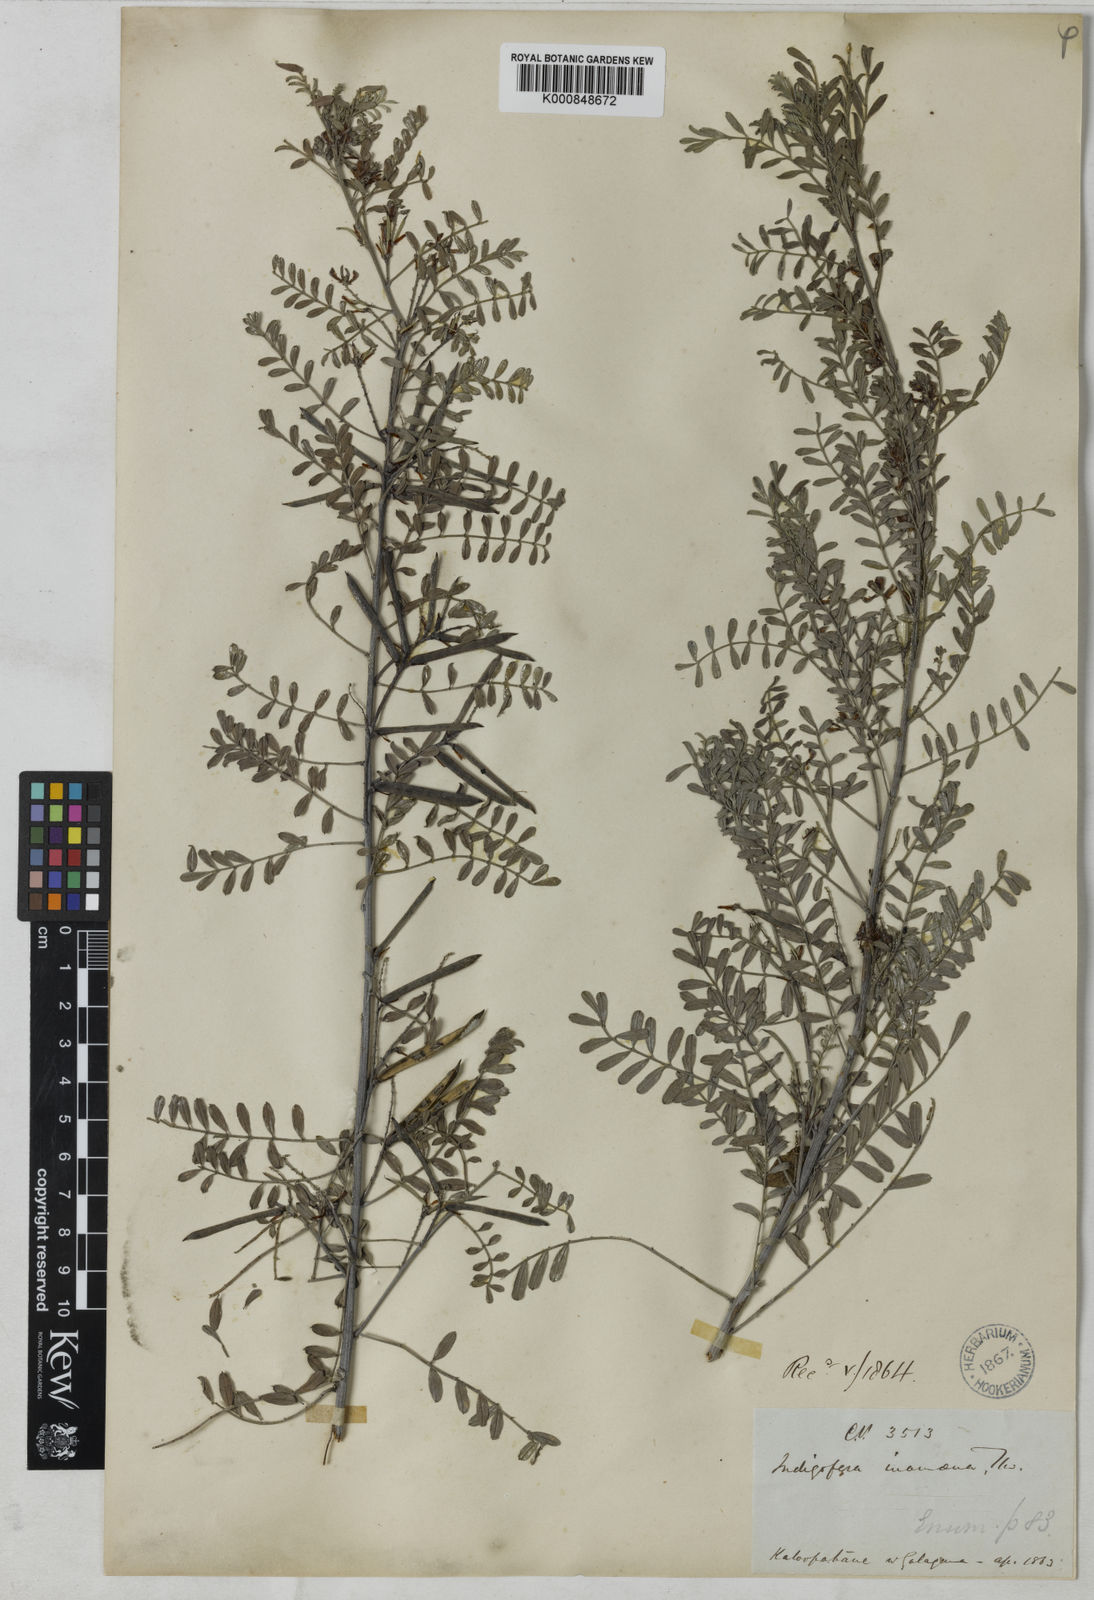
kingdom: Plantae
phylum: Tracheophyta
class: Magnoliopsida
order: Fabales
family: Fabaceae
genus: Indigofera
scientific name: Indigofera wightii
